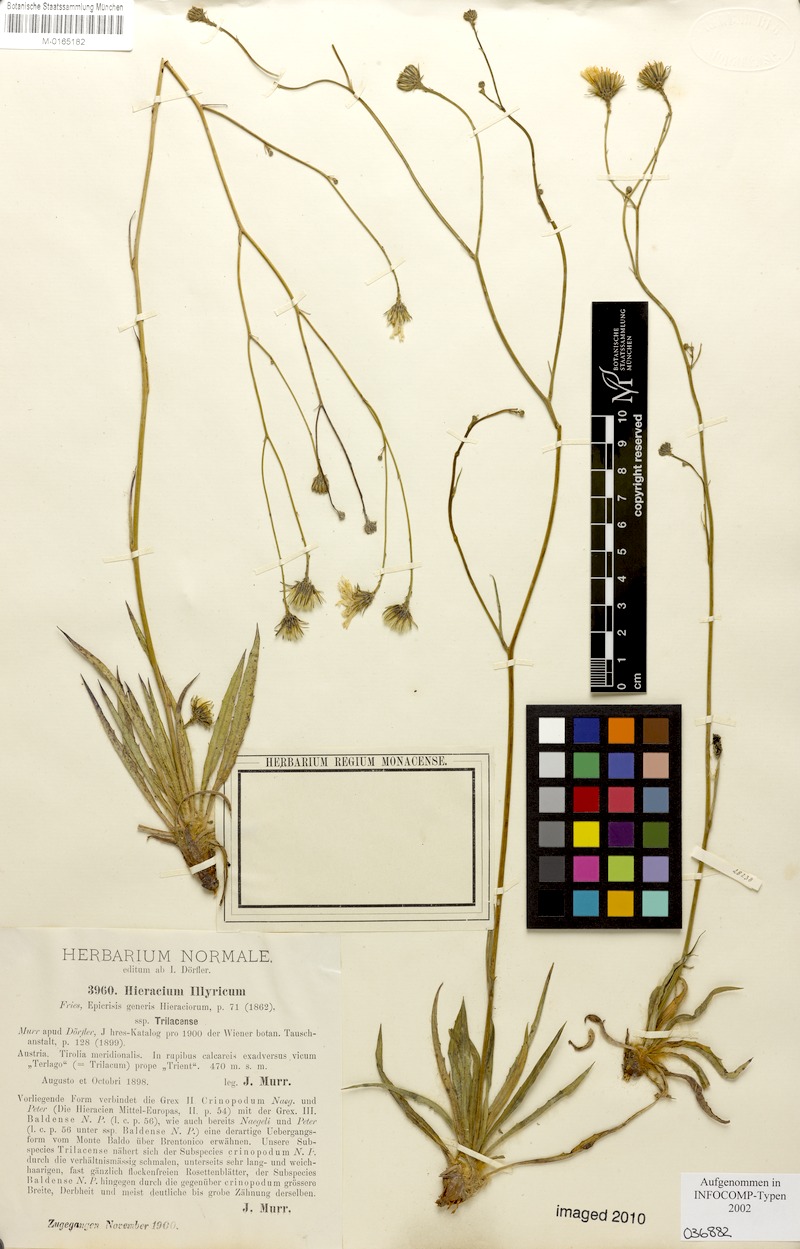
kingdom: Plantae
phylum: Tracheophyta
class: Magnoliopsida
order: Asterales
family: Asteraceae
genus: Hieracium
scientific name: Hieracium calcareum
